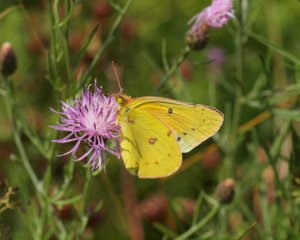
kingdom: Animalia
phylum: Arthropoda
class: Insecta
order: Lepidoptera
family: Pieridae
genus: Colias
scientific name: Colias eurytheme
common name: Orange Sulphur
